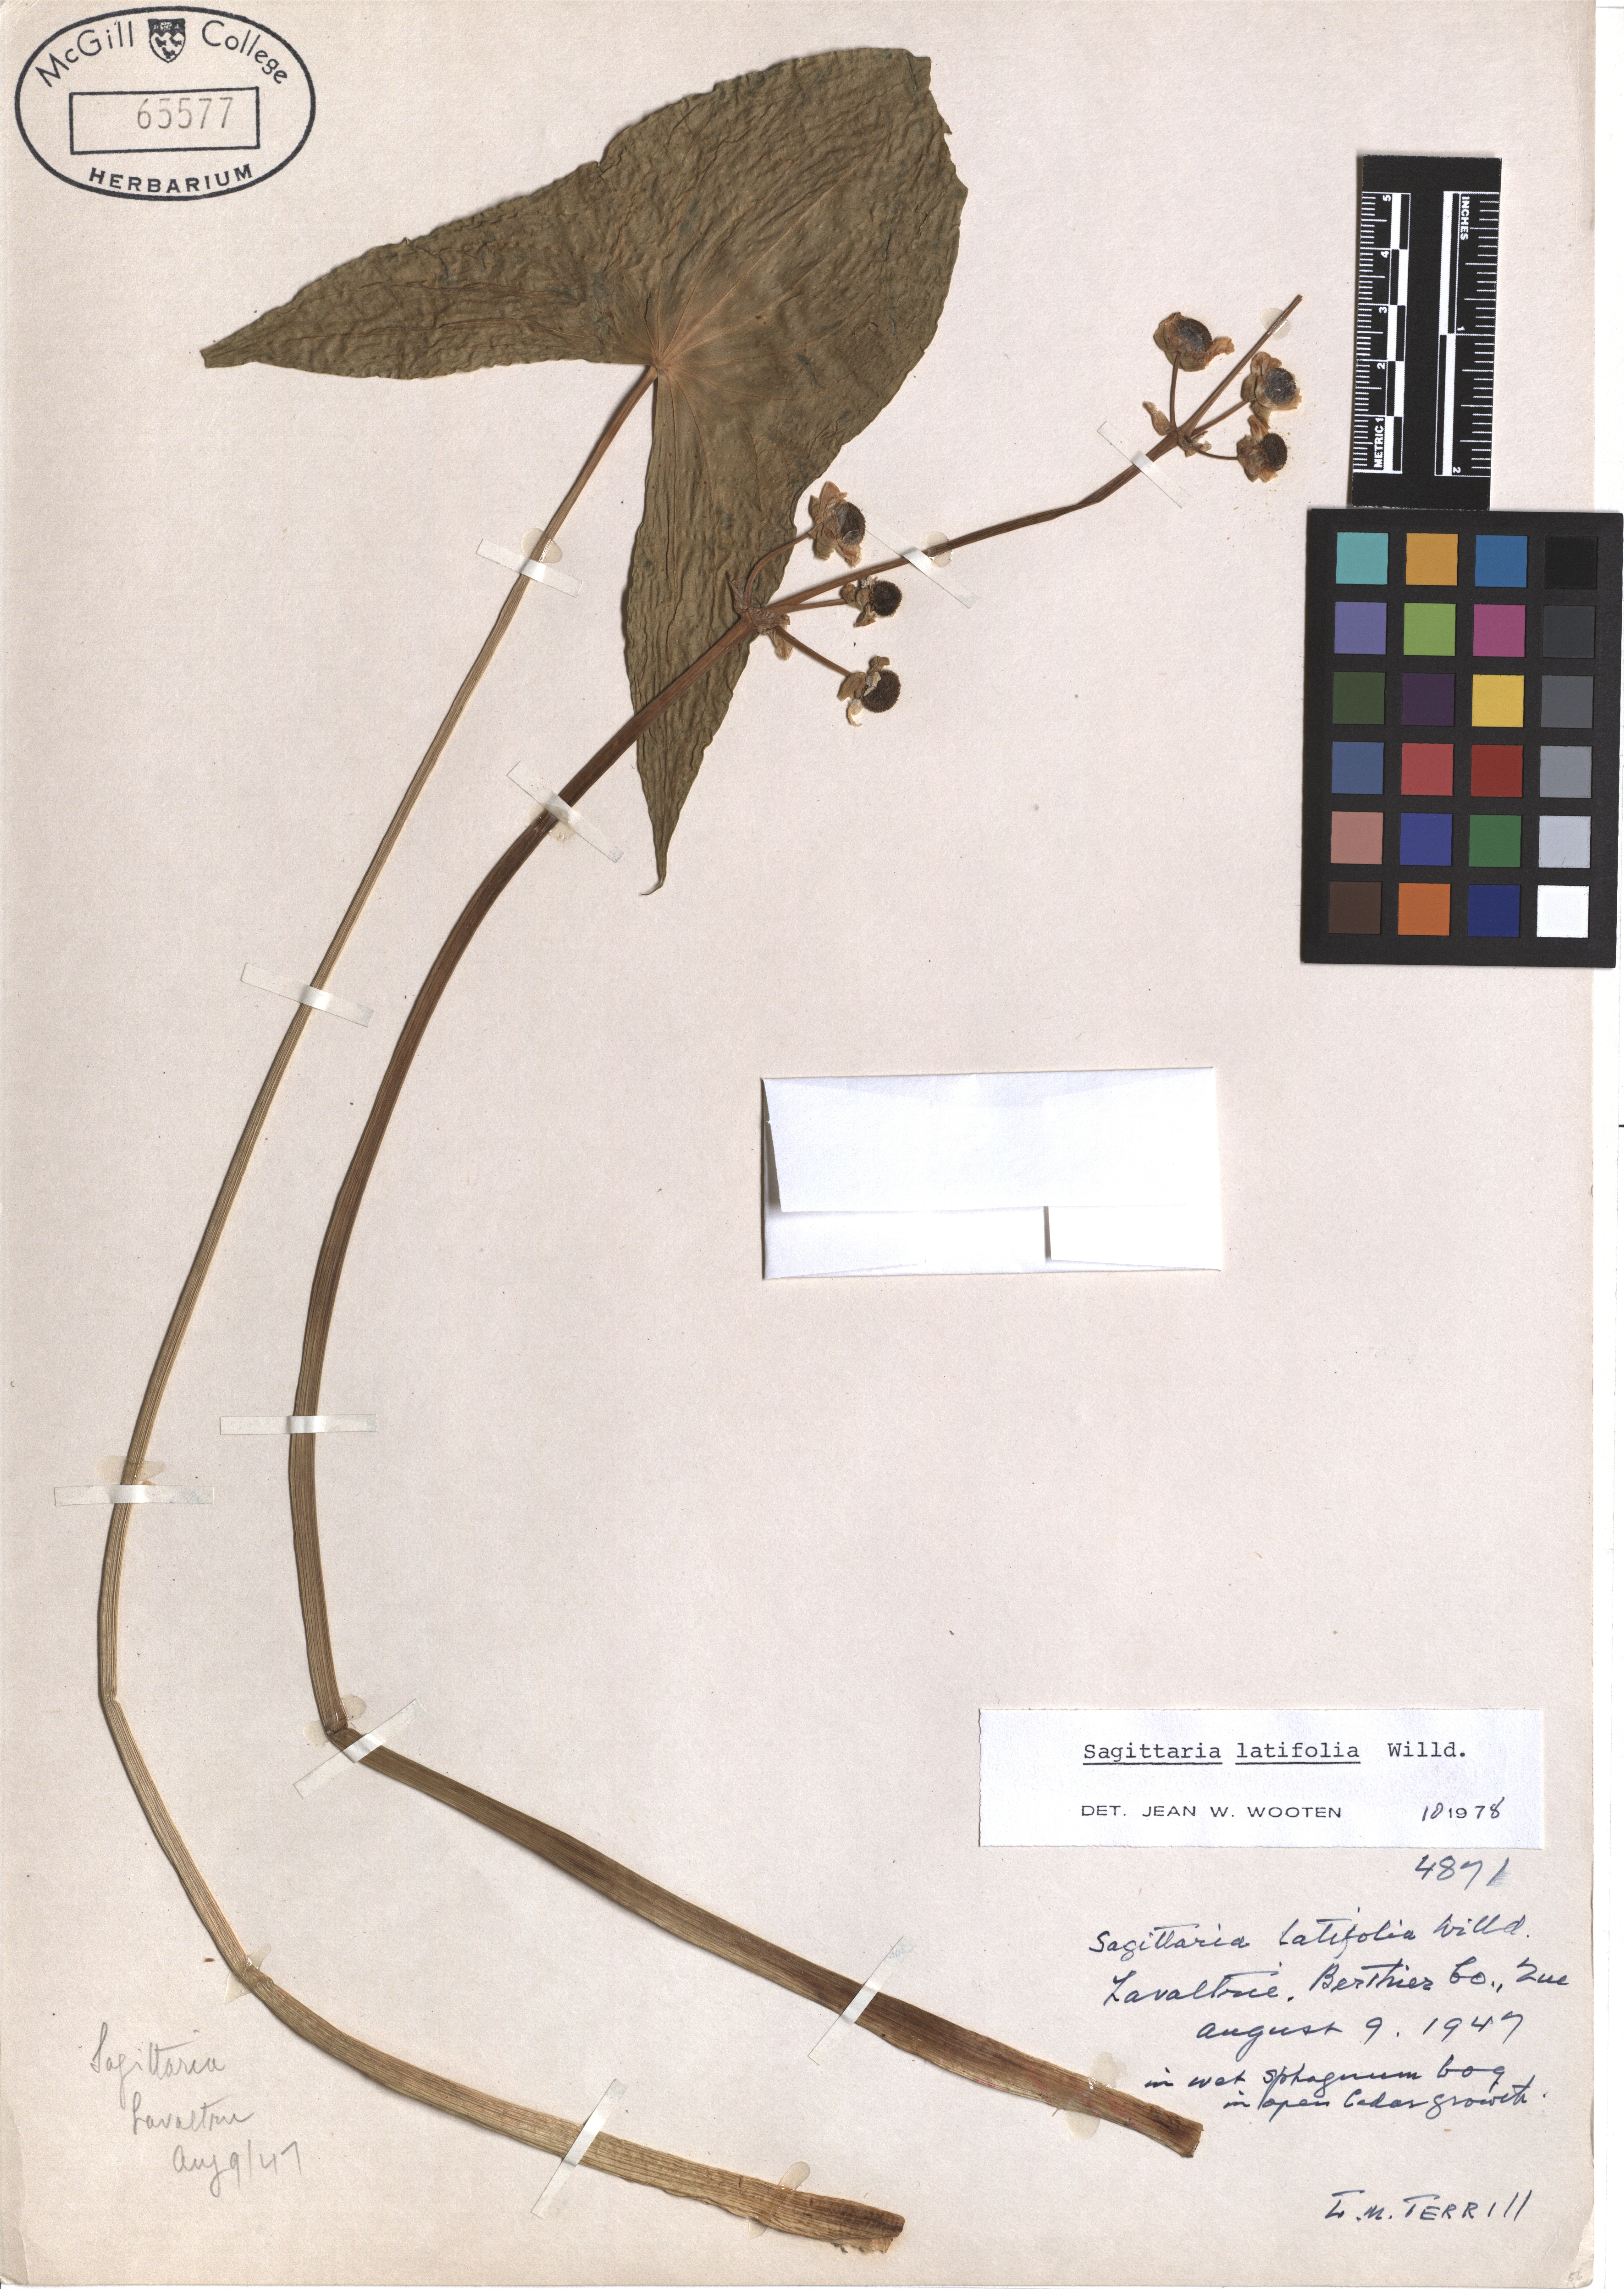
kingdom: Plantae
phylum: Tracheophyta
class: Liliopsida
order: Alismatales
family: Alismataceae
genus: Sagittaria
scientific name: Sagittaria latifolia
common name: Duck-potato
